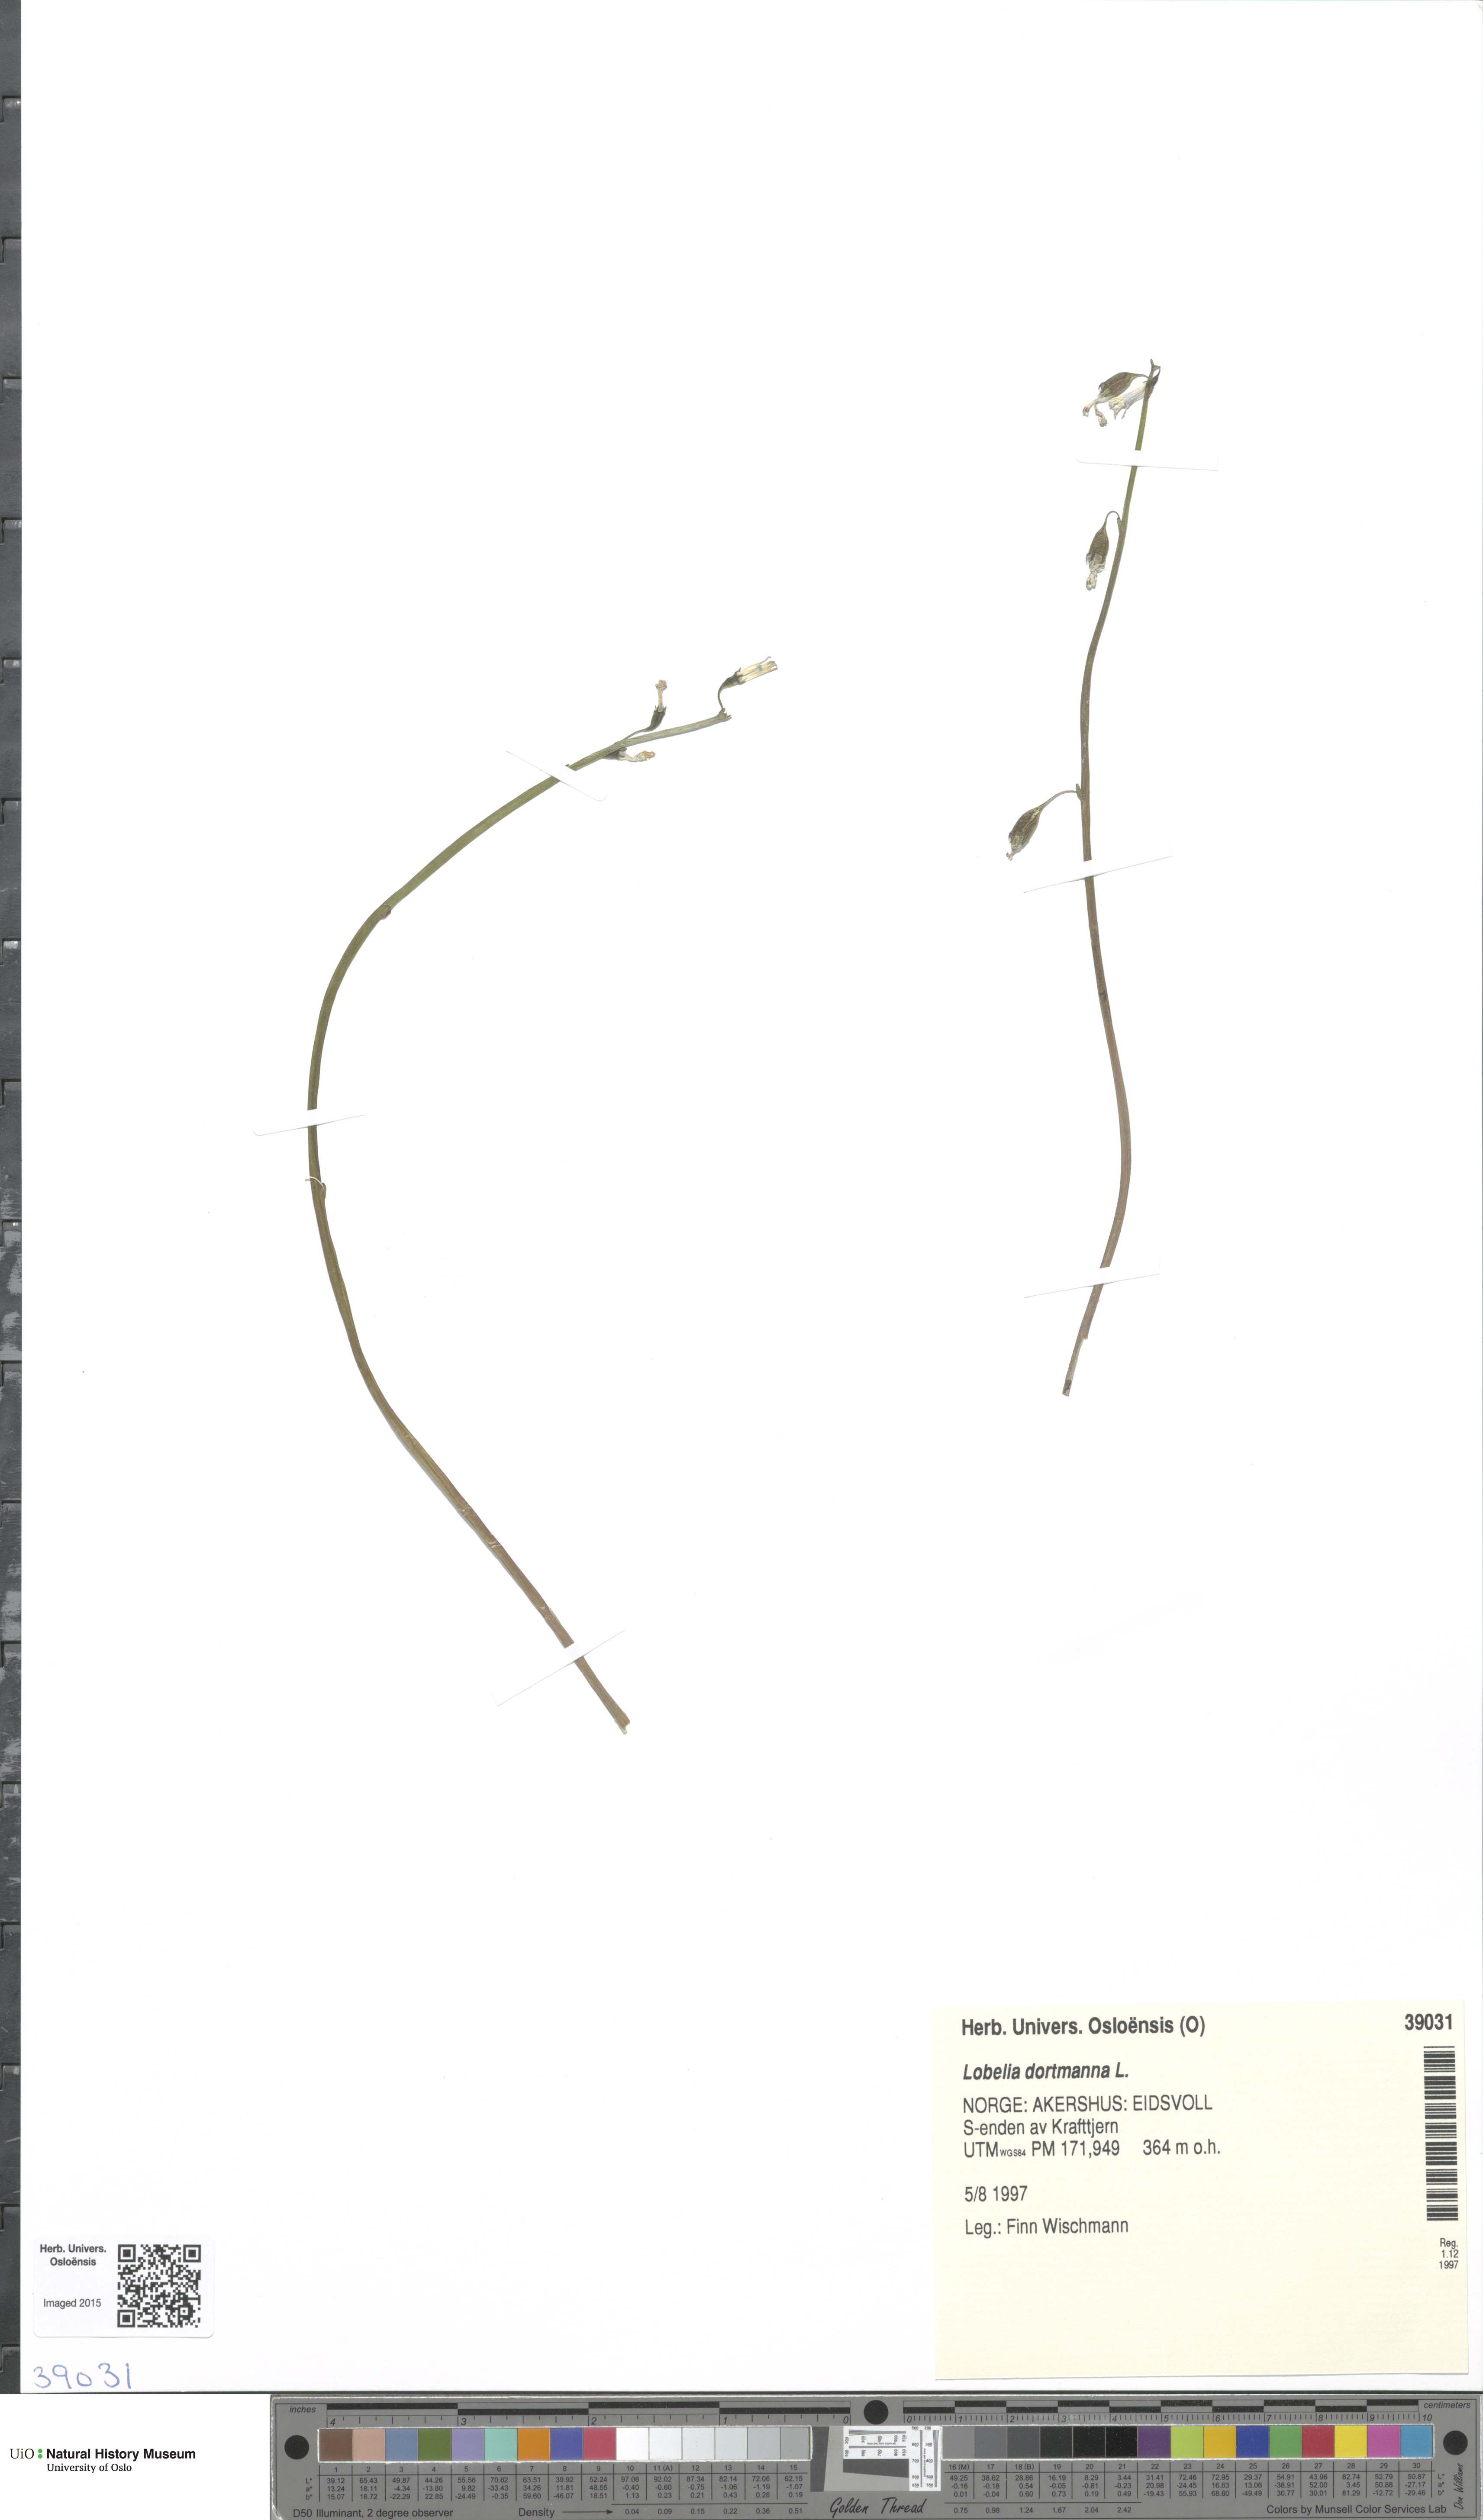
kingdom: Plantae
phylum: Tracheophyta
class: Magnoliopsida
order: Asterales
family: Campanulaceae
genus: Lobelia
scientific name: Lobelia dortmanna
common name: Water lobelia
